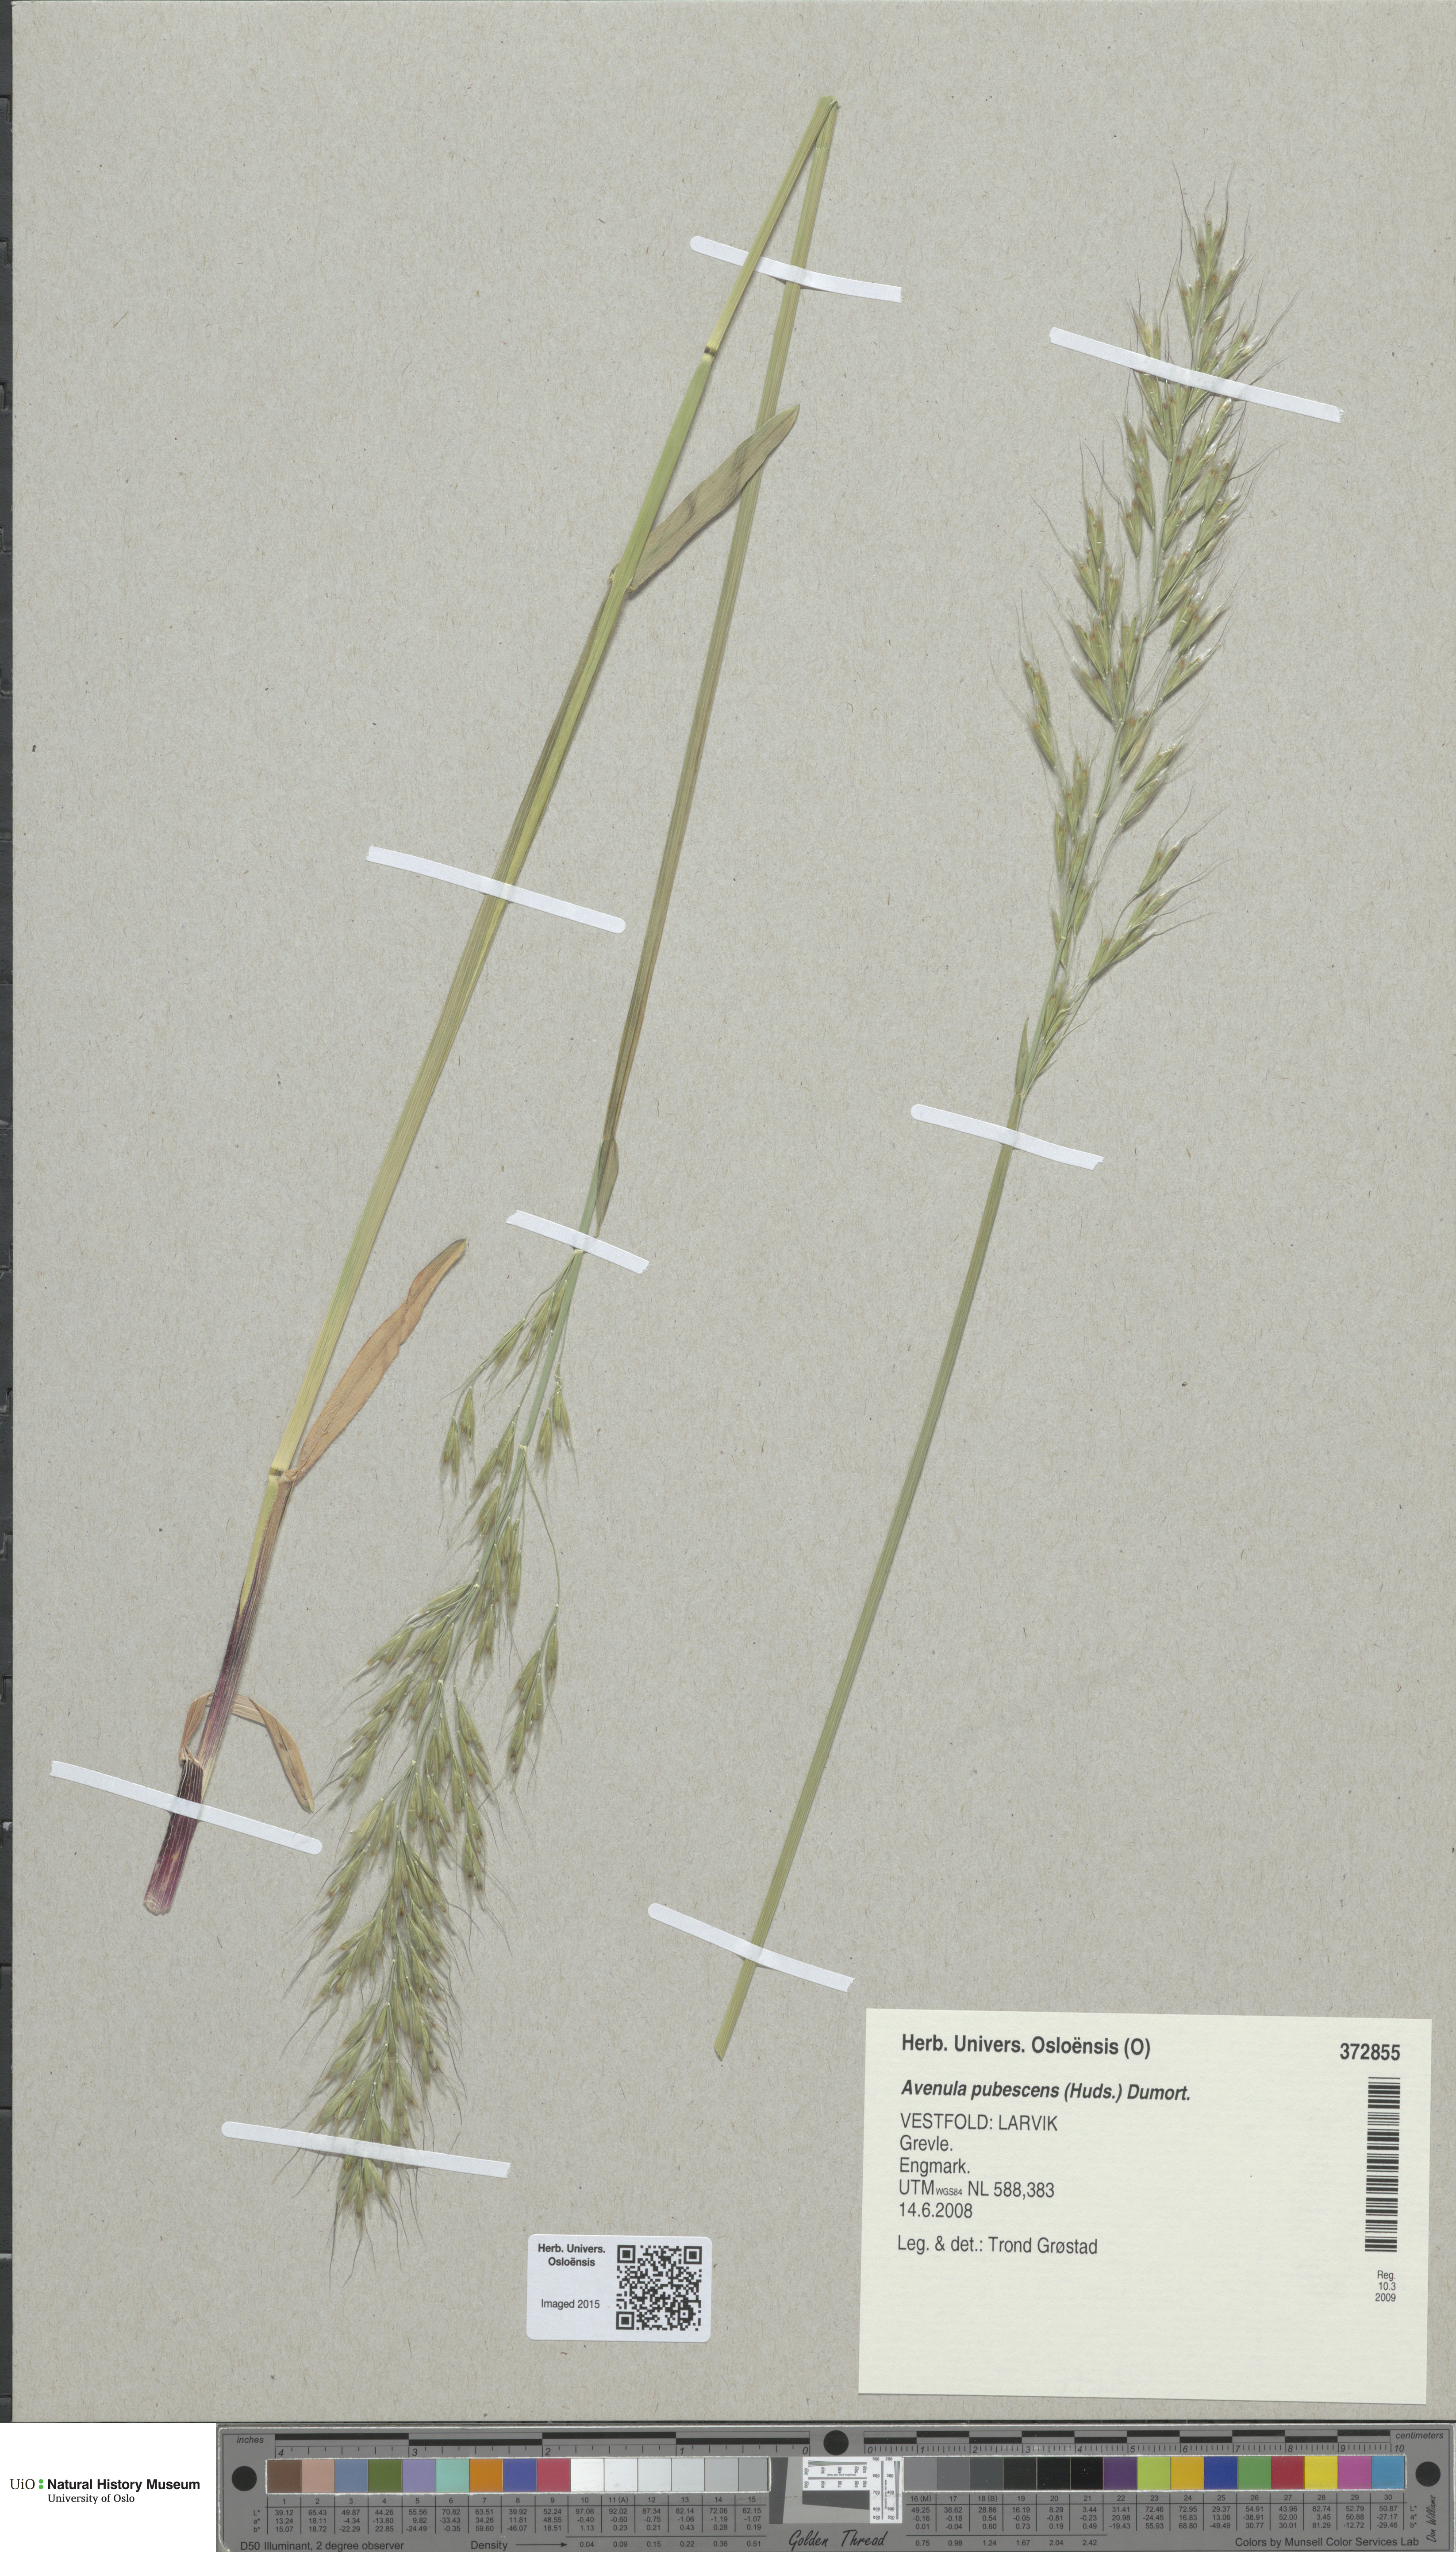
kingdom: Plantae
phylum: Tracheophyta
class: Liliopsida
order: Poales
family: Poaceae
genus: Avenula
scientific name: Avenula pubescens
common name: Downy alpine oatgrass
